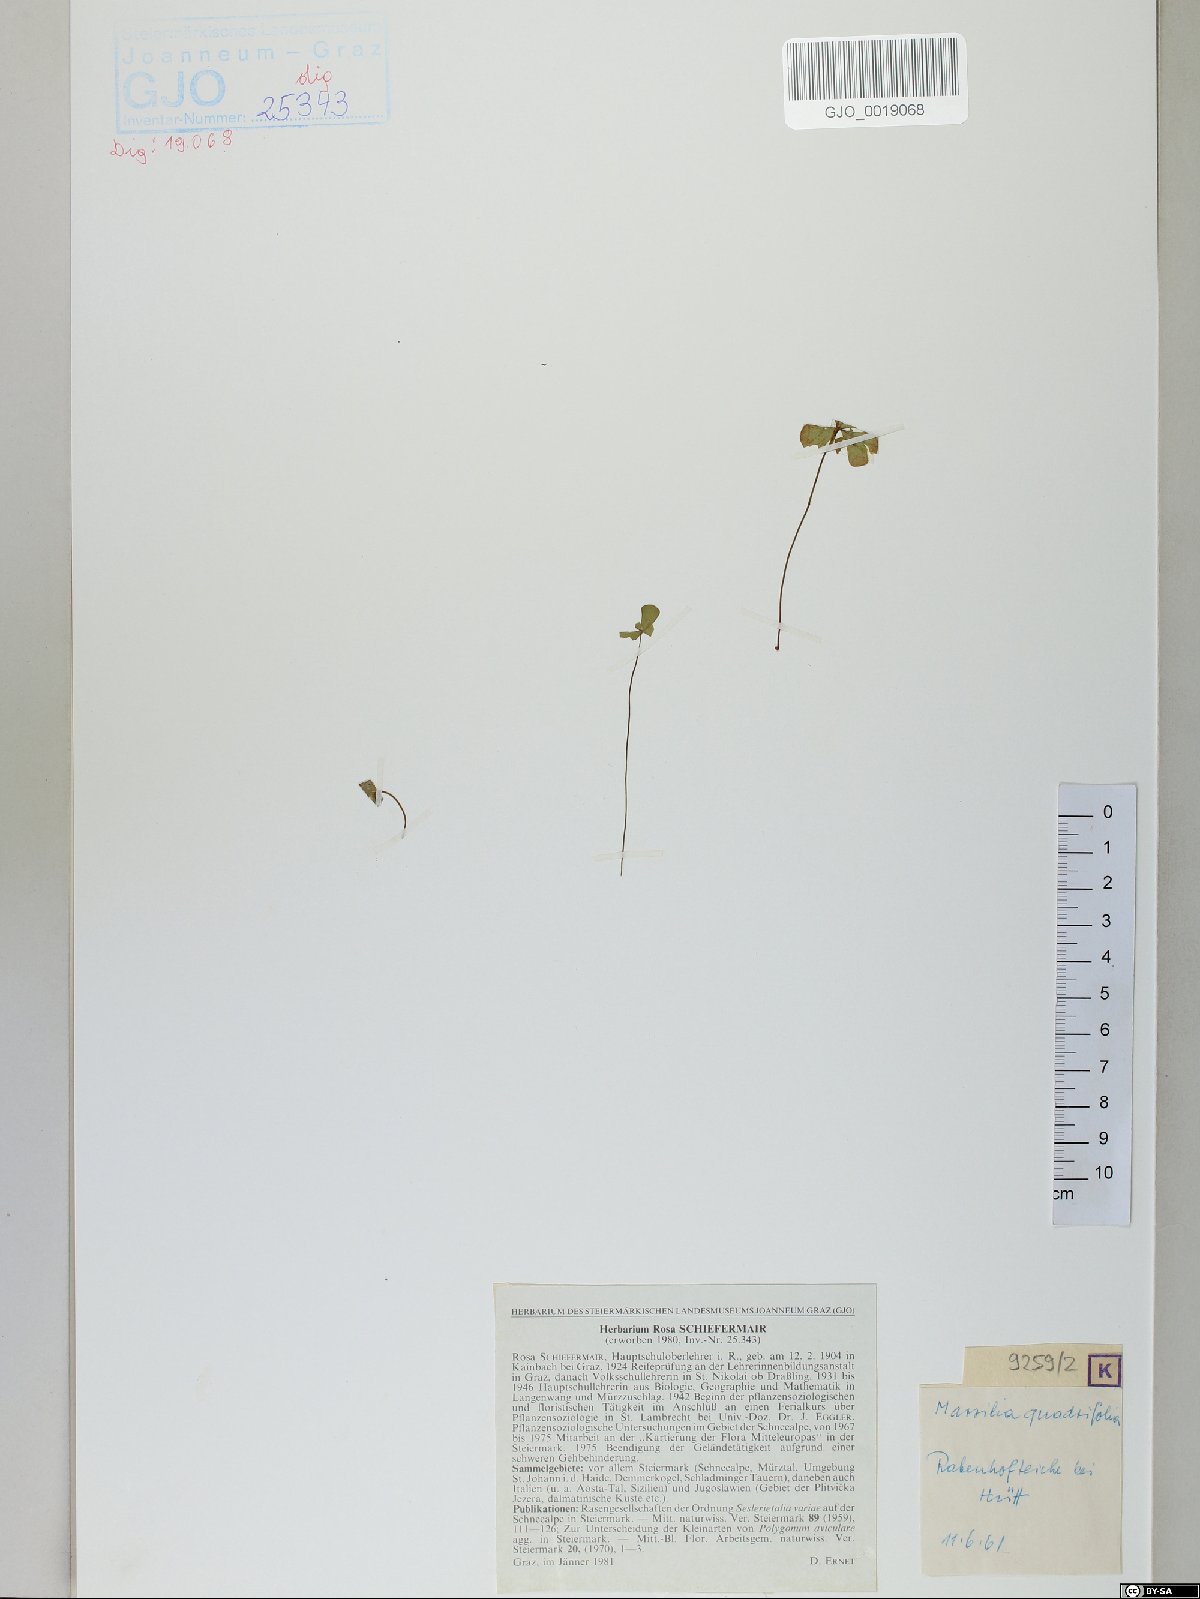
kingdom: Plantae
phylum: Tracheophyta
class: Polypodiopsida
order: Salviniales
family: Marsileaceae
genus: Marsilea
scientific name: Marsilea quadrifolia
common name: Water shamrock
